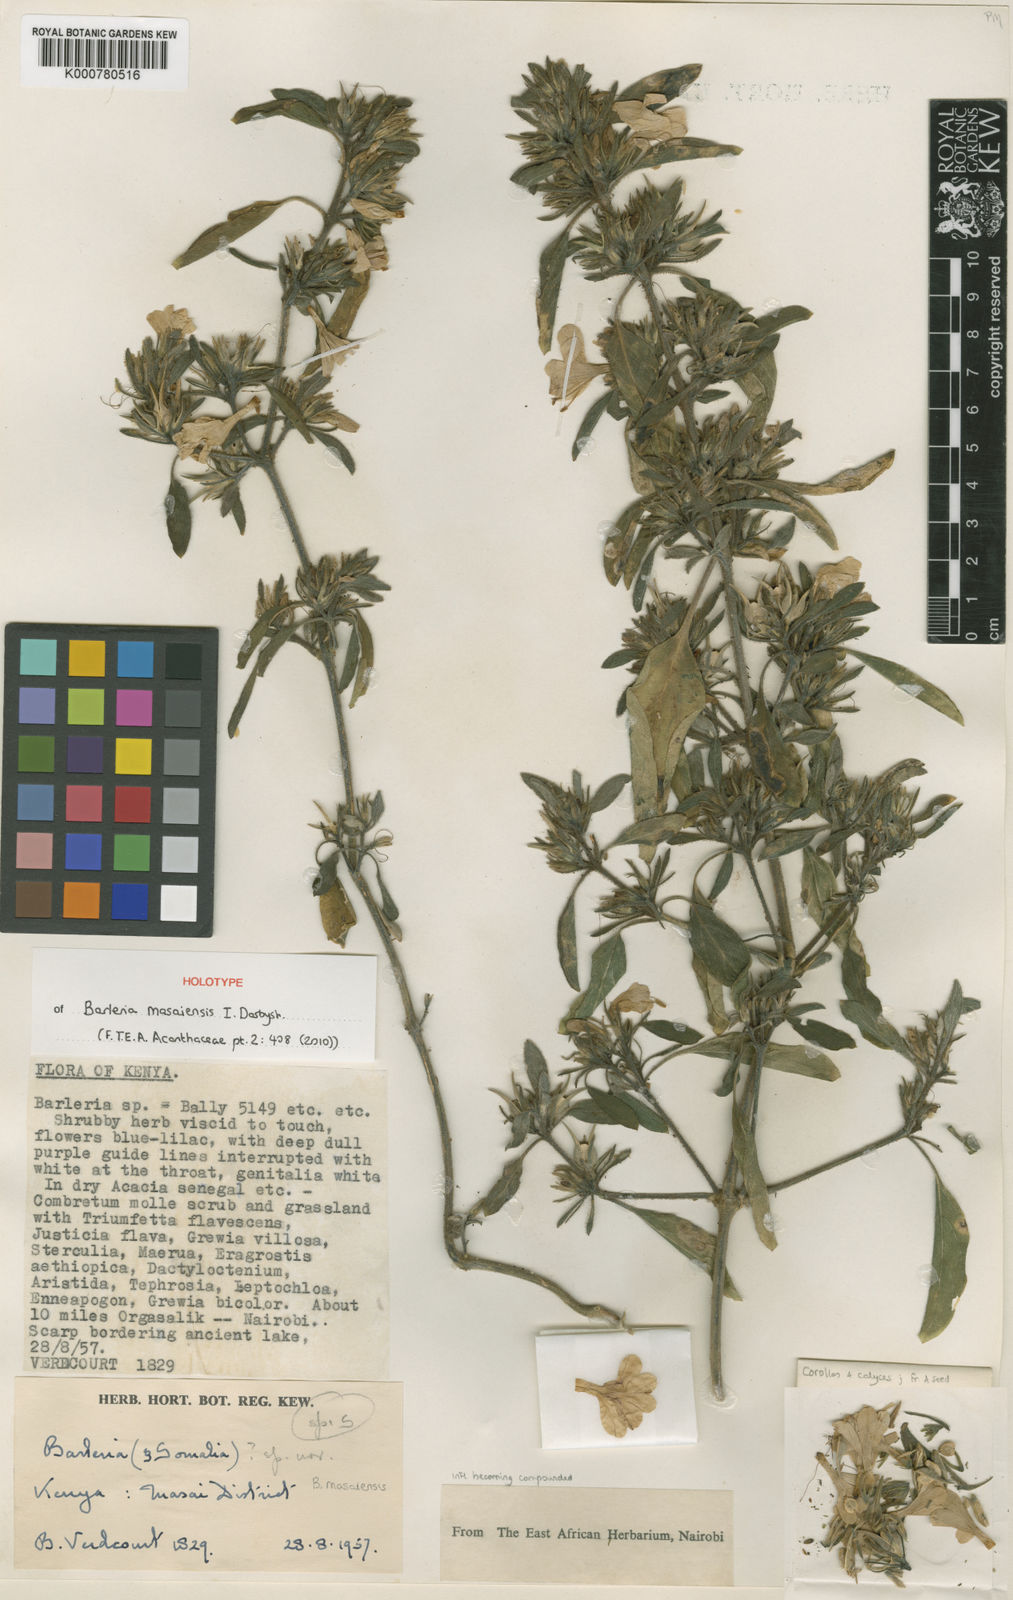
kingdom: Plantae
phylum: Tracheophyta
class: Magnoliopsida
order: Lamiales
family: Acanthaceae
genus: Barleria
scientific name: Barleria masaiensis
